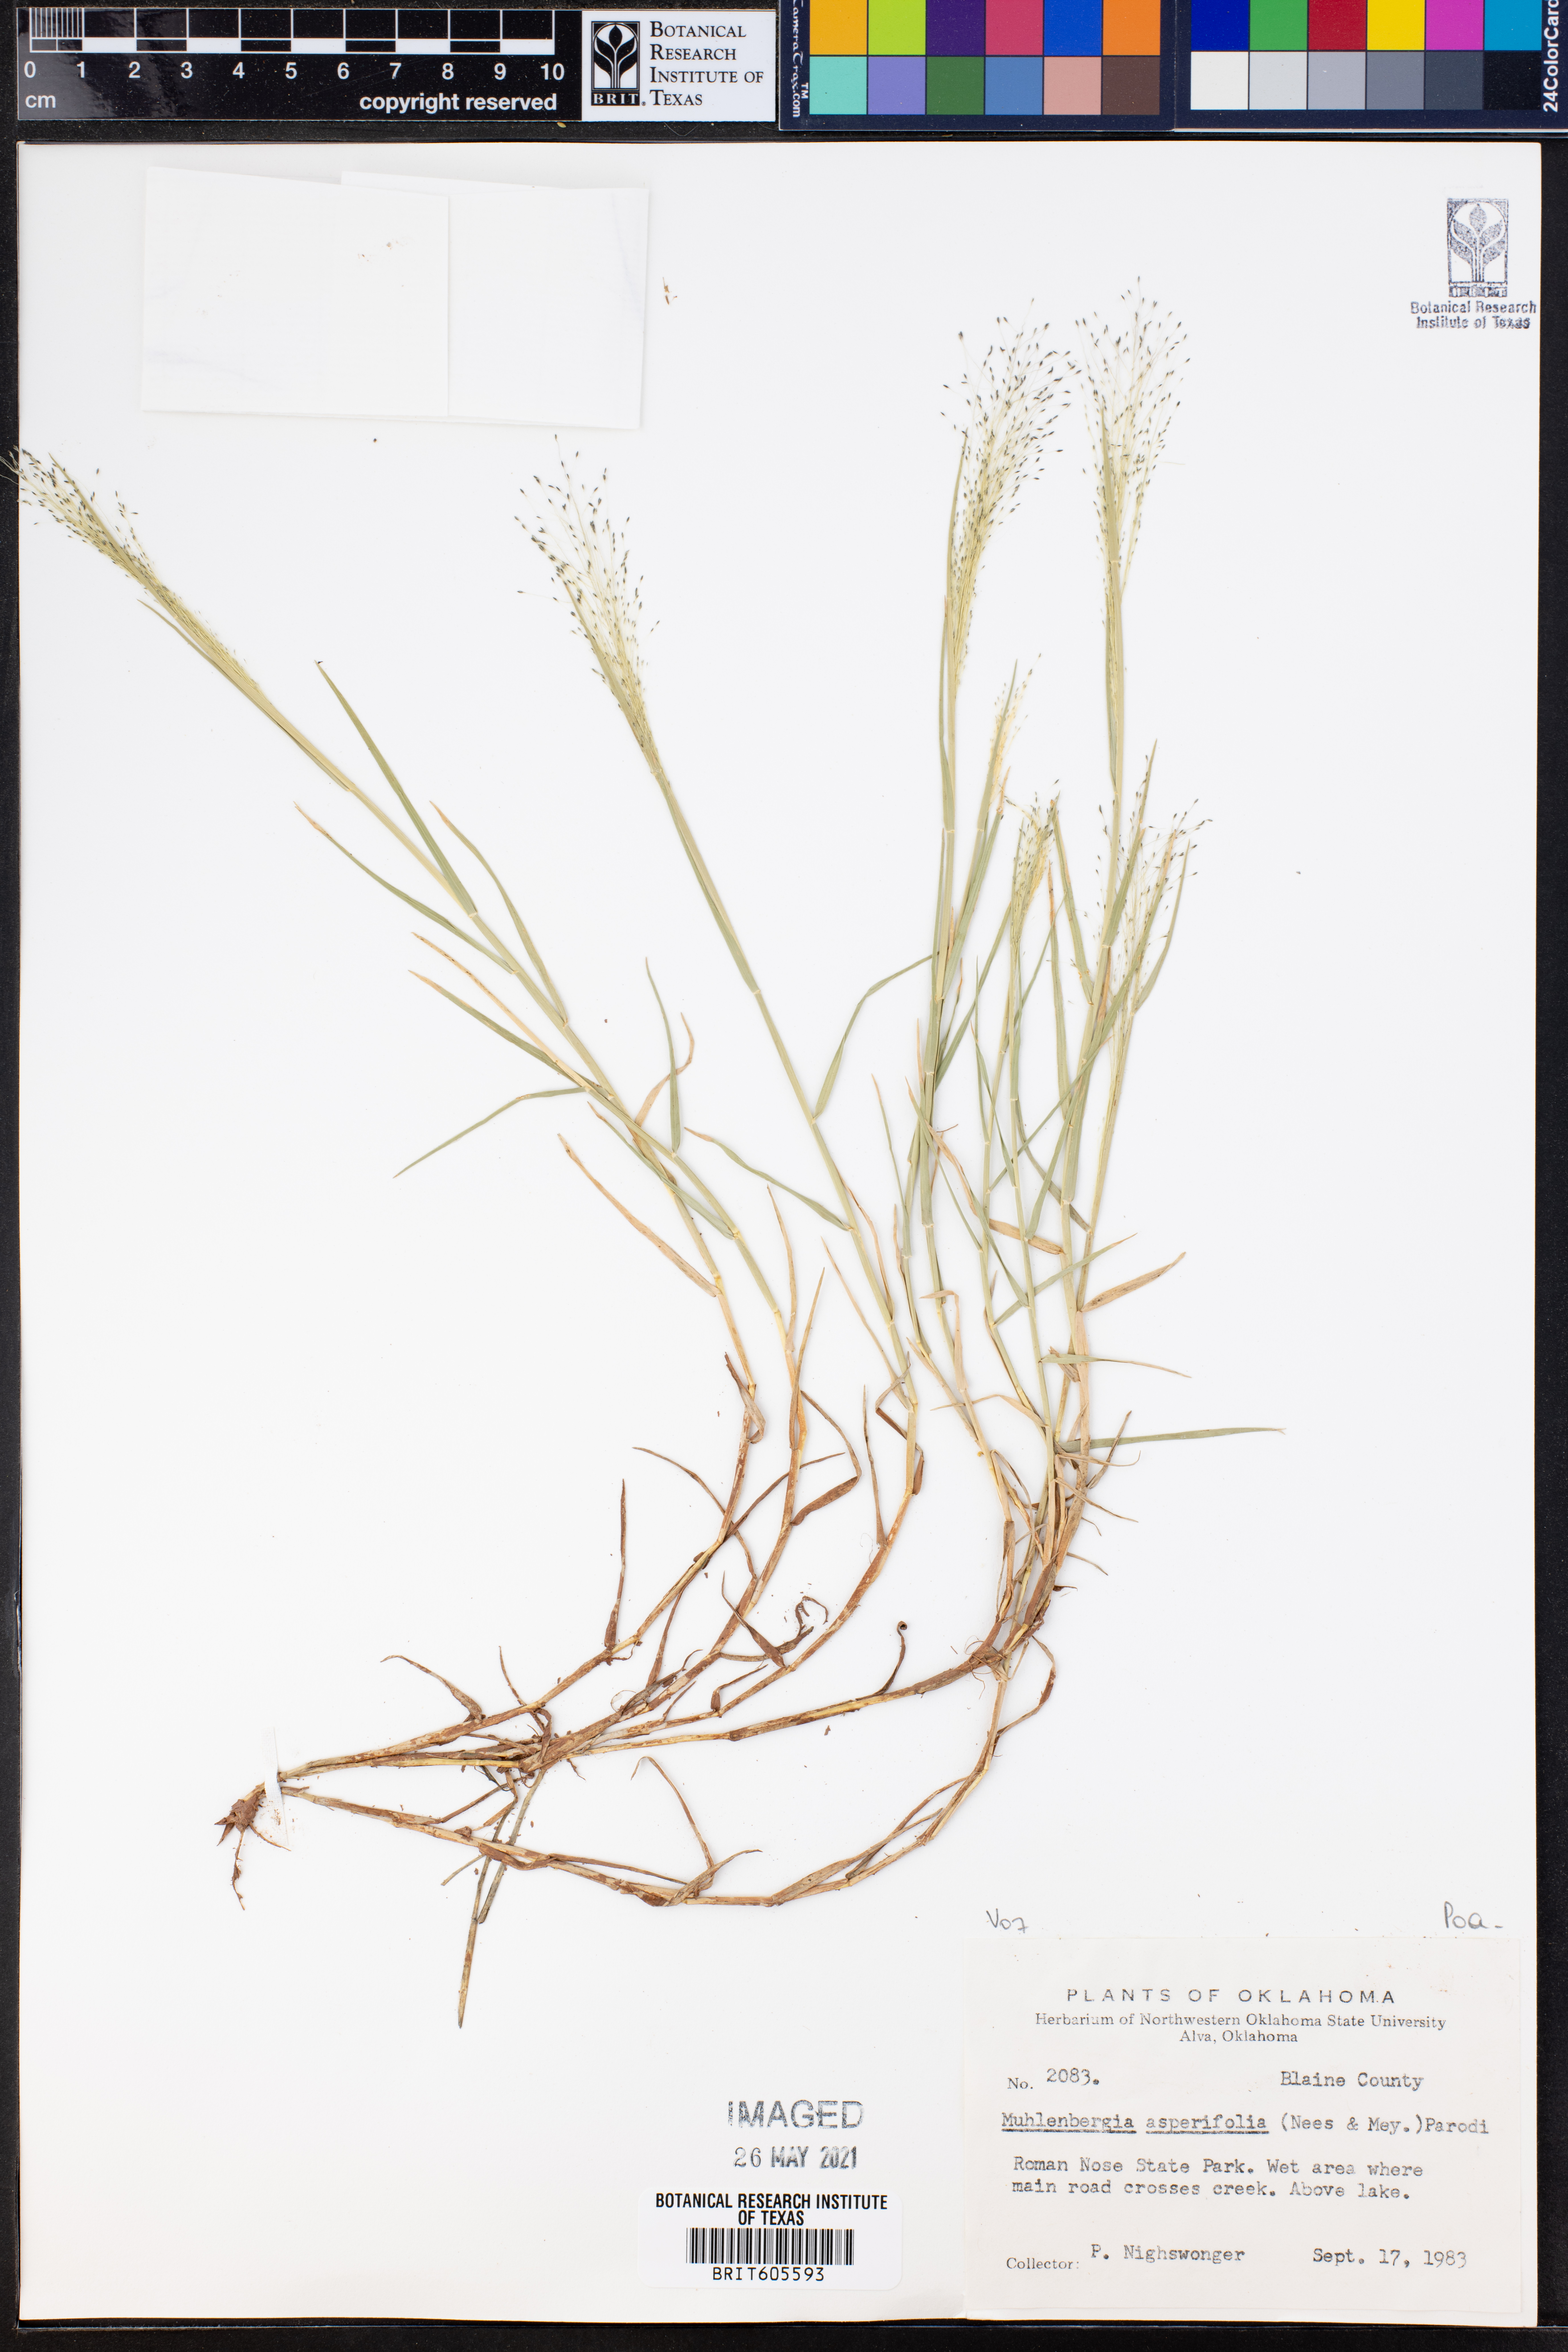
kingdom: Plantae
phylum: Tracheophyta
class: Liliopsida
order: Poales
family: Poaceae
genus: Muhlenbergia
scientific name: Muhlenbergia asperifolia
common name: Alkali muhly
